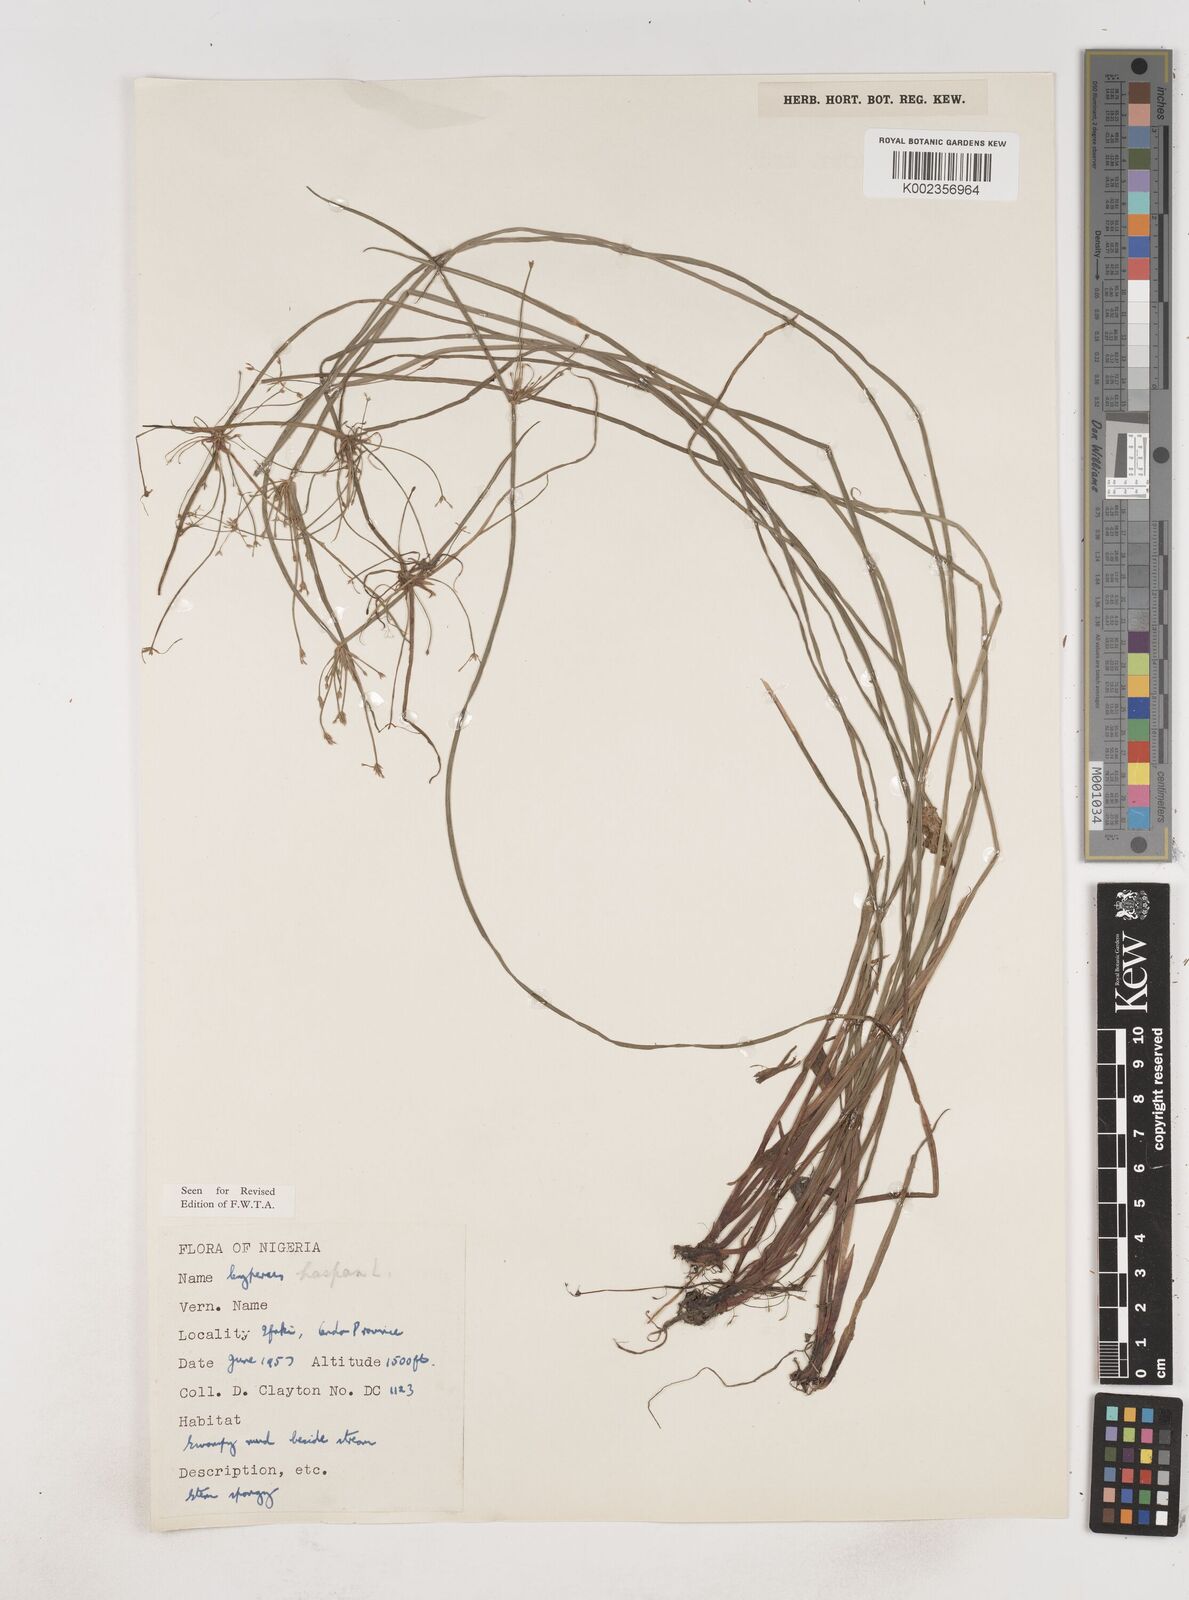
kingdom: Plantae
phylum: Tracheophyta
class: Liliopsida
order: Poales
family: Cyperaceae
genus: Cyperus
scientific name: Cyperus haspan
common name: Haspan flatsedge
